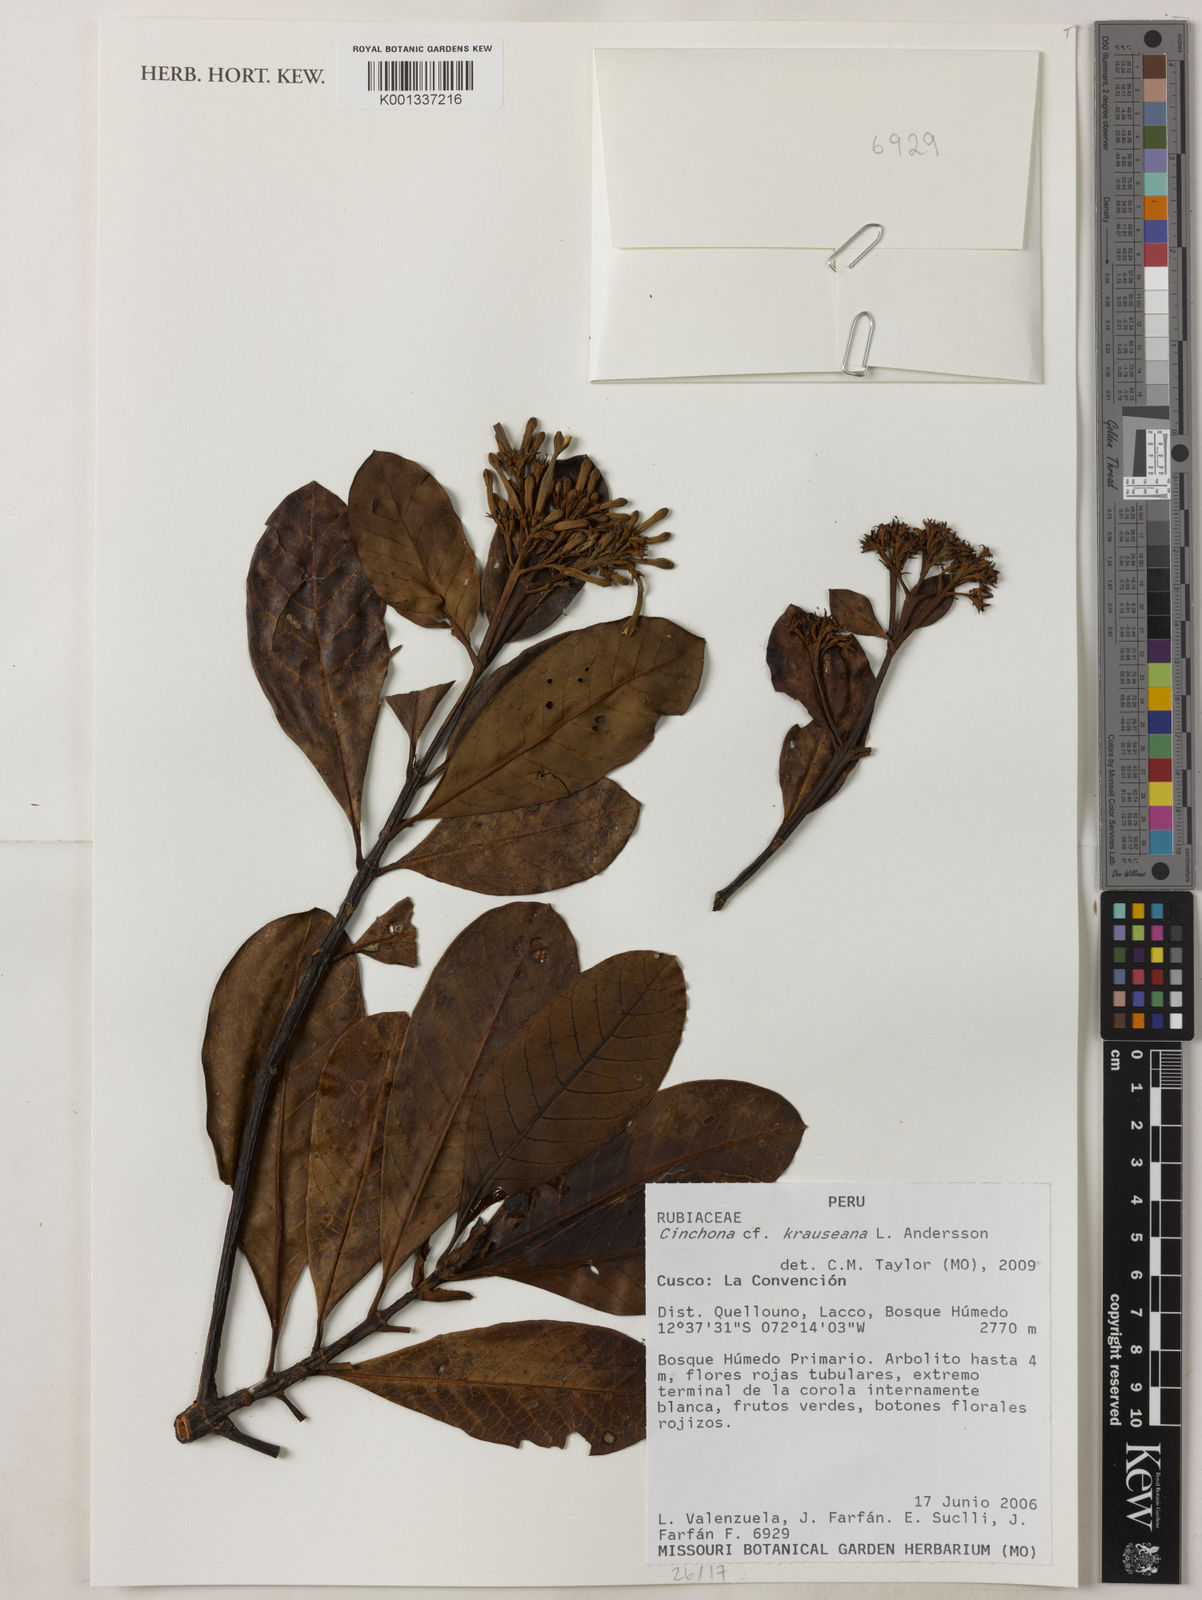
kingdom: Plantae
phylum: Tracheophyta
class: Magnoliopsida
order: Gentianales
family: Rubiaceae
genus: Cinchona
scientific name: Cinchona krauseana
